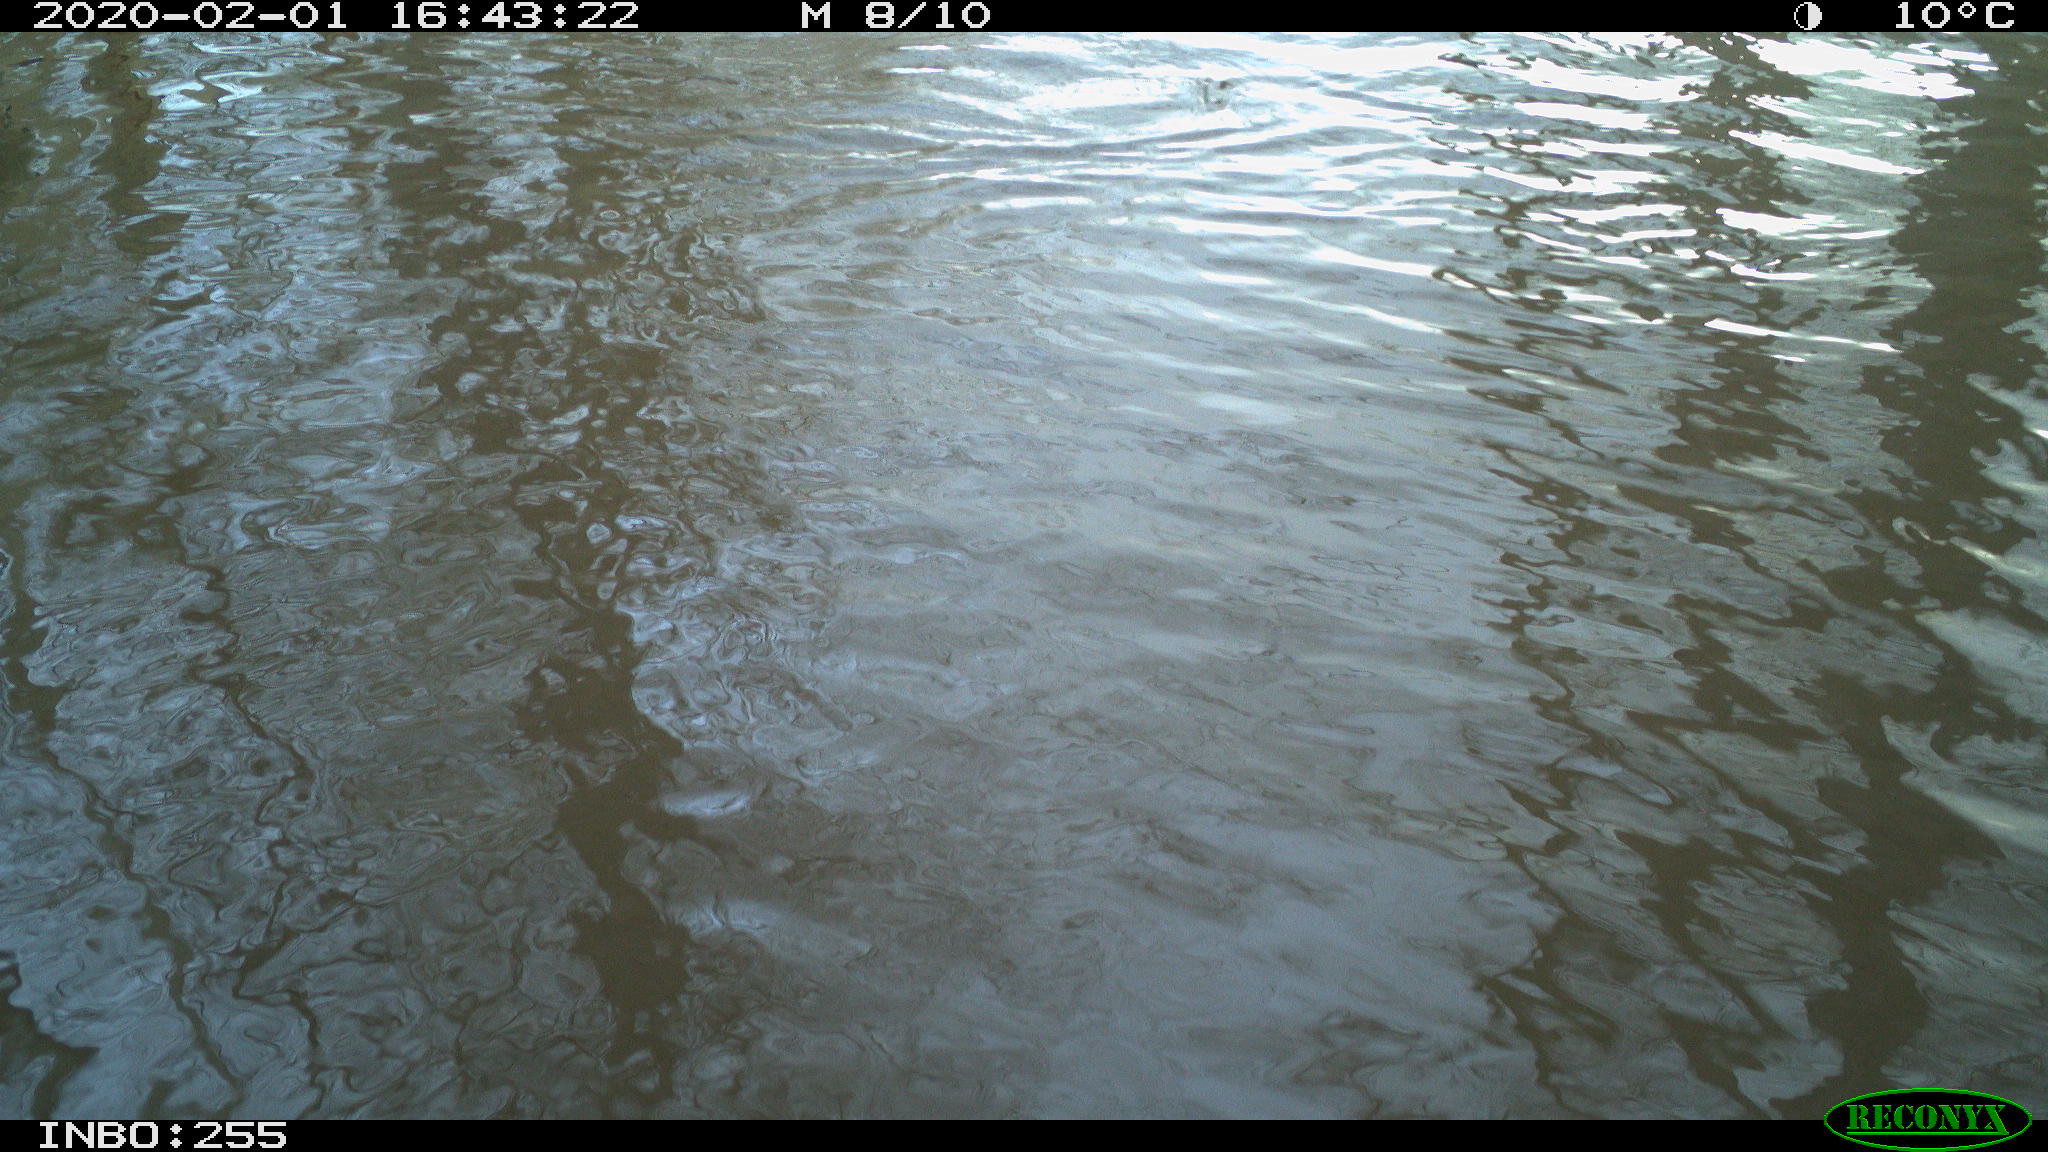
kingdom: Animalia
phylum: Chordata
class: Aves
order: Gruiformes
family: Rallidae
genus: Fulica
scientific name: Fulica atra
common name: Eurasian coot
